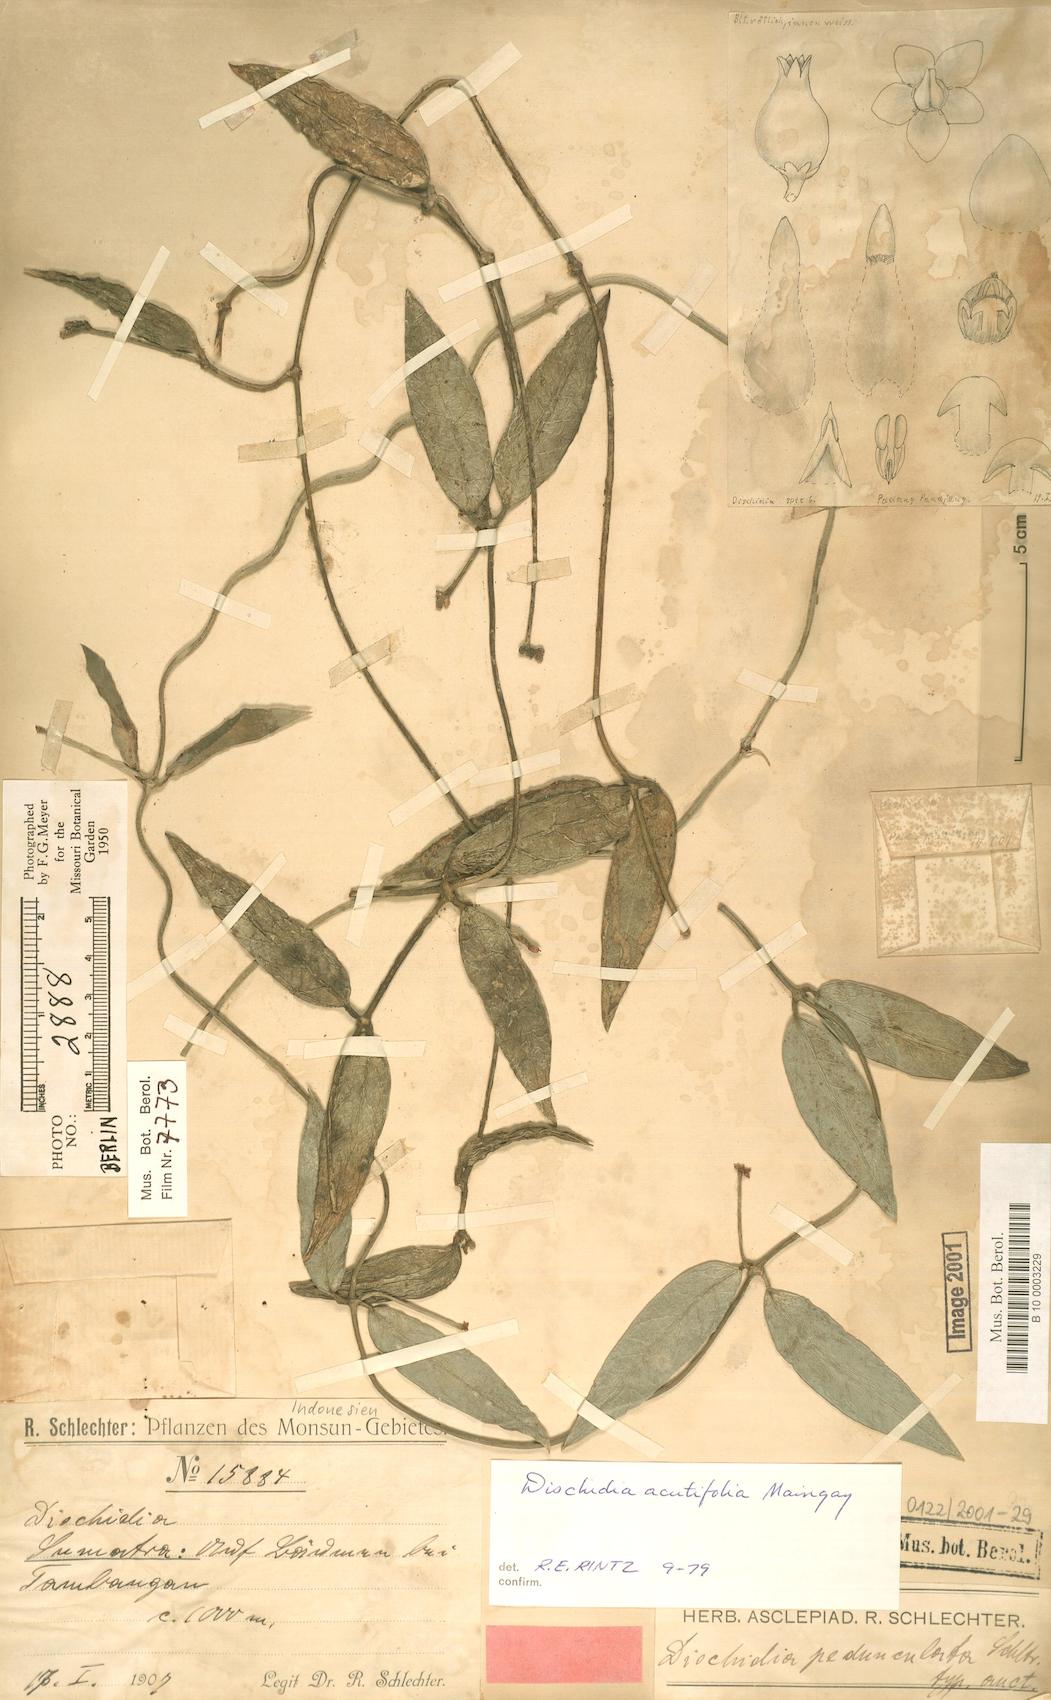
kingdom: Plantae
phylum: Tracheophyta
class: Magnoliopsida
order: Gentianales
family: Apocynaceae
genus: Dischidia
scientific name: Dischidia acutifolia
